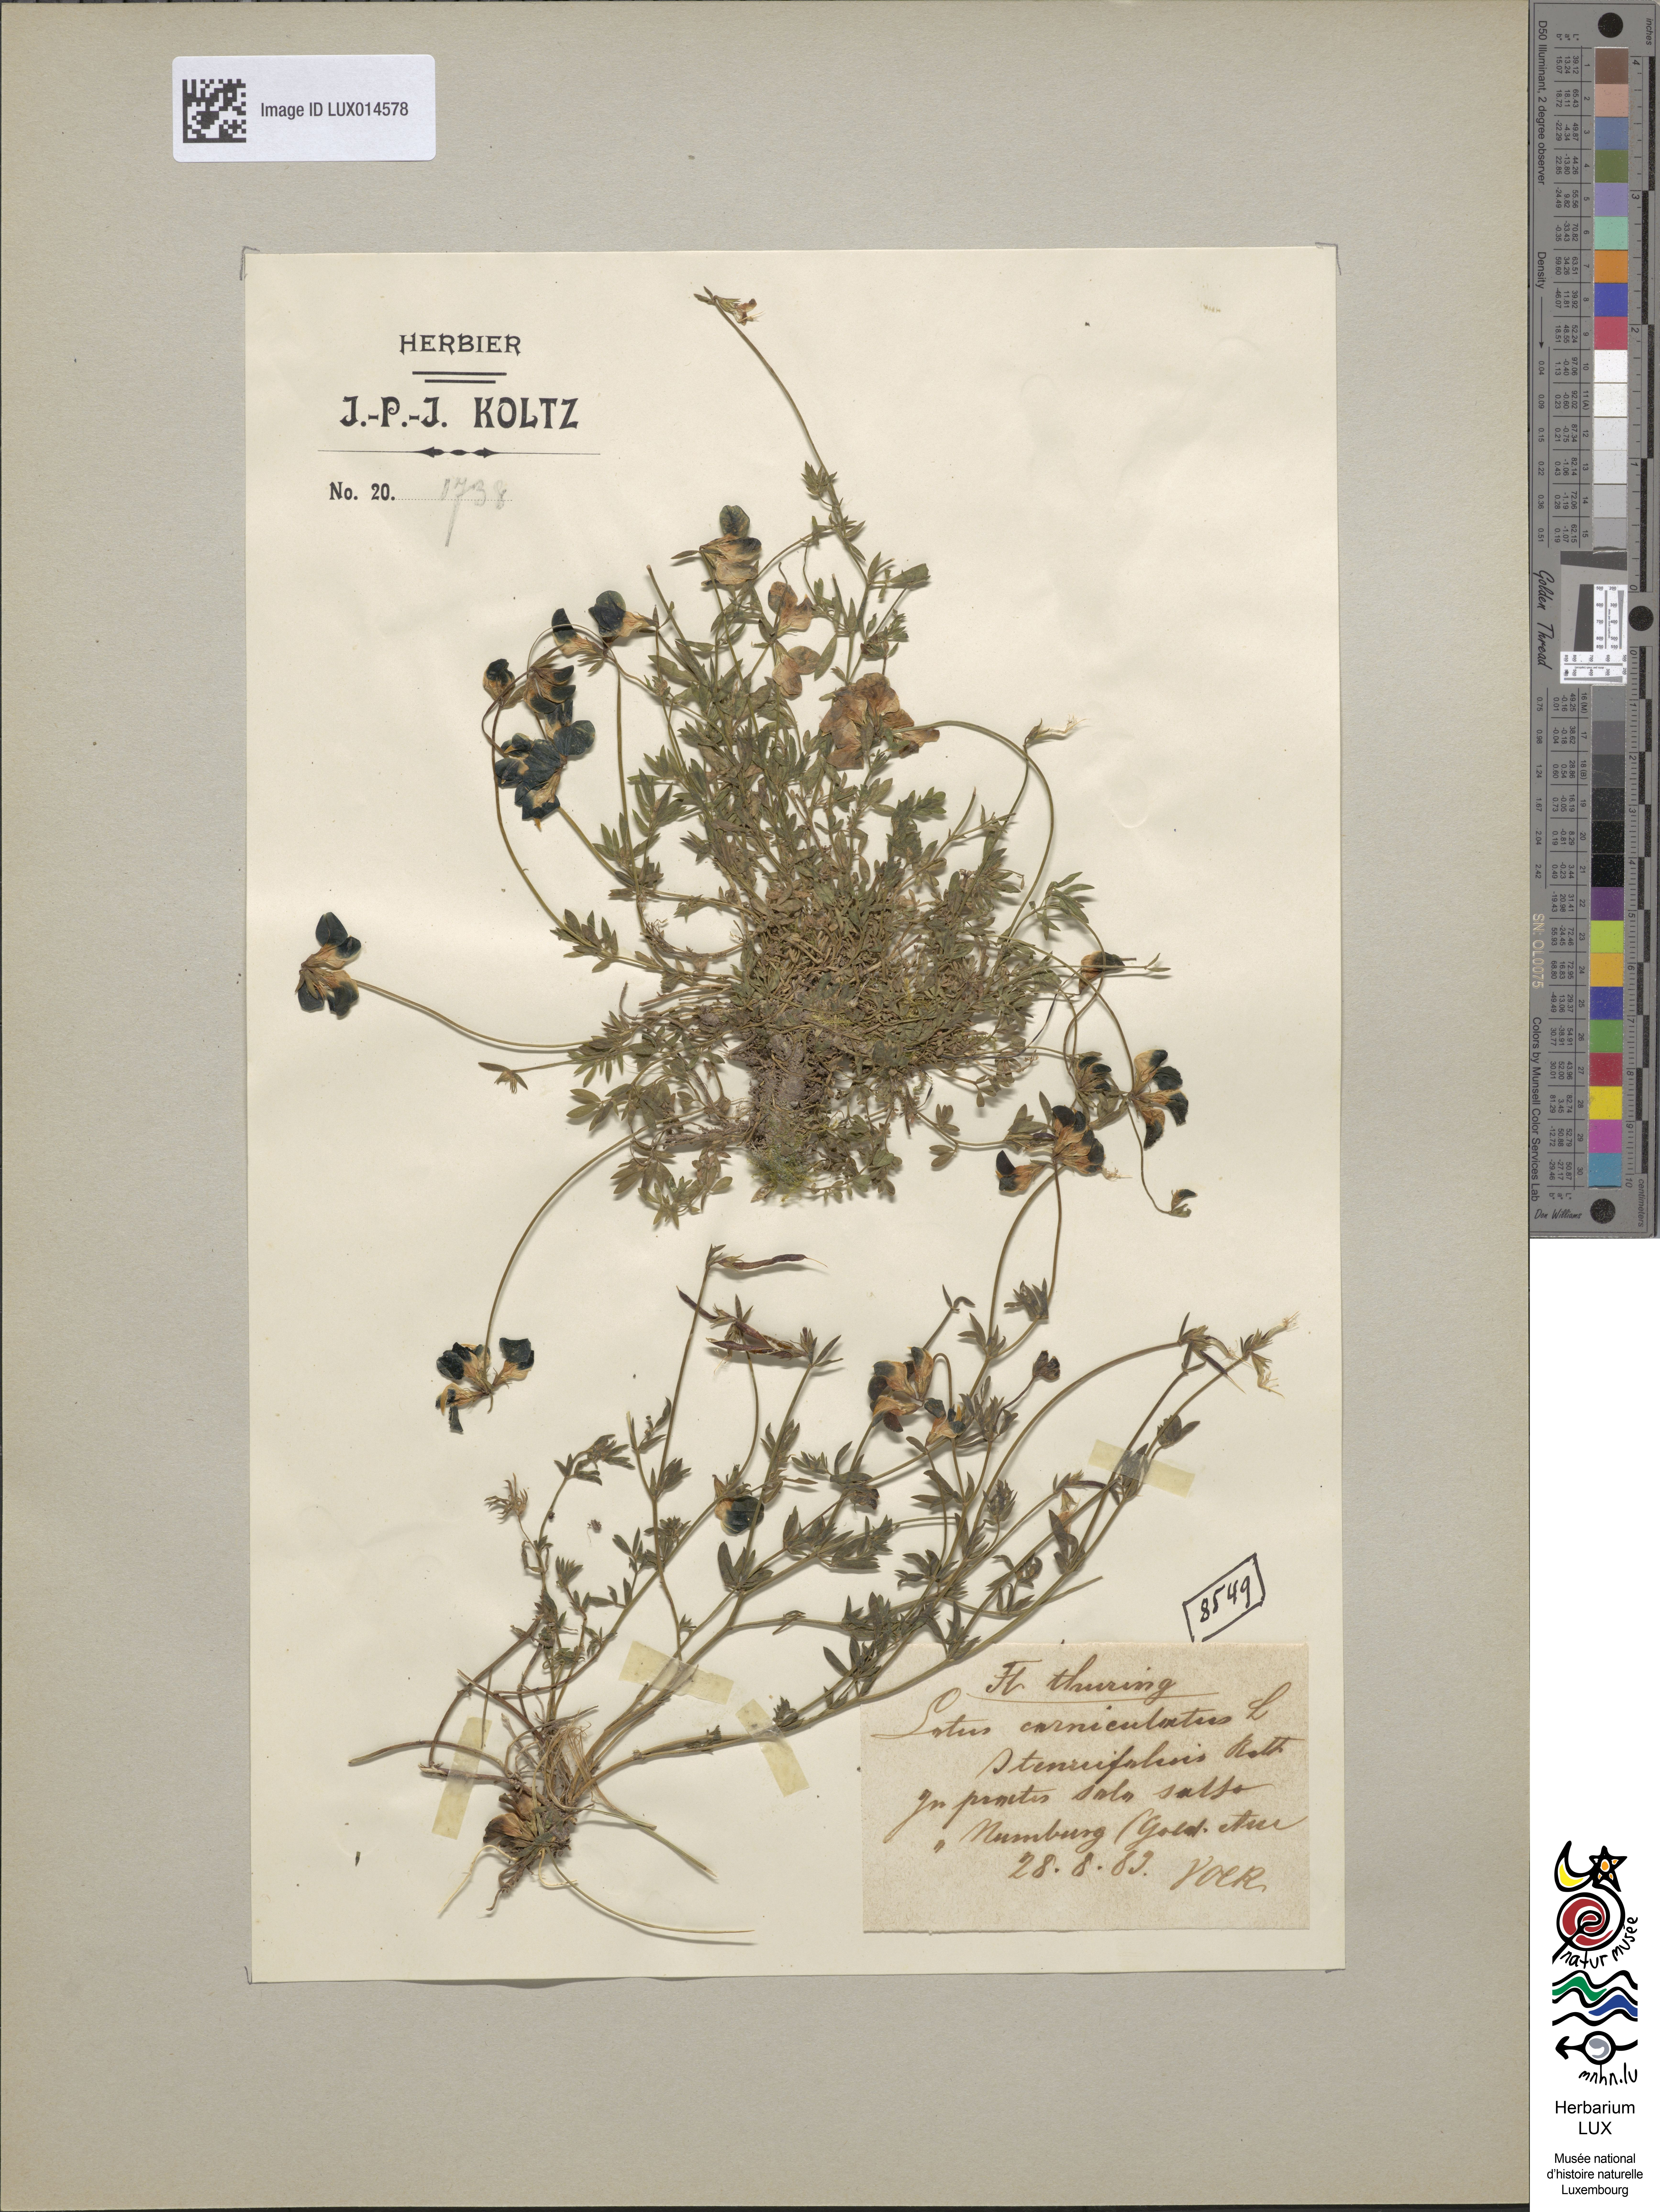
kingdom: Plantae
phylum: Tracheophyta
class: Magnoliopsida
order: Fabales
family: Fabaceae
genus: Lotus
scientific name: Lotus corniculatus
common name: Common bird's-foot-trefoil
